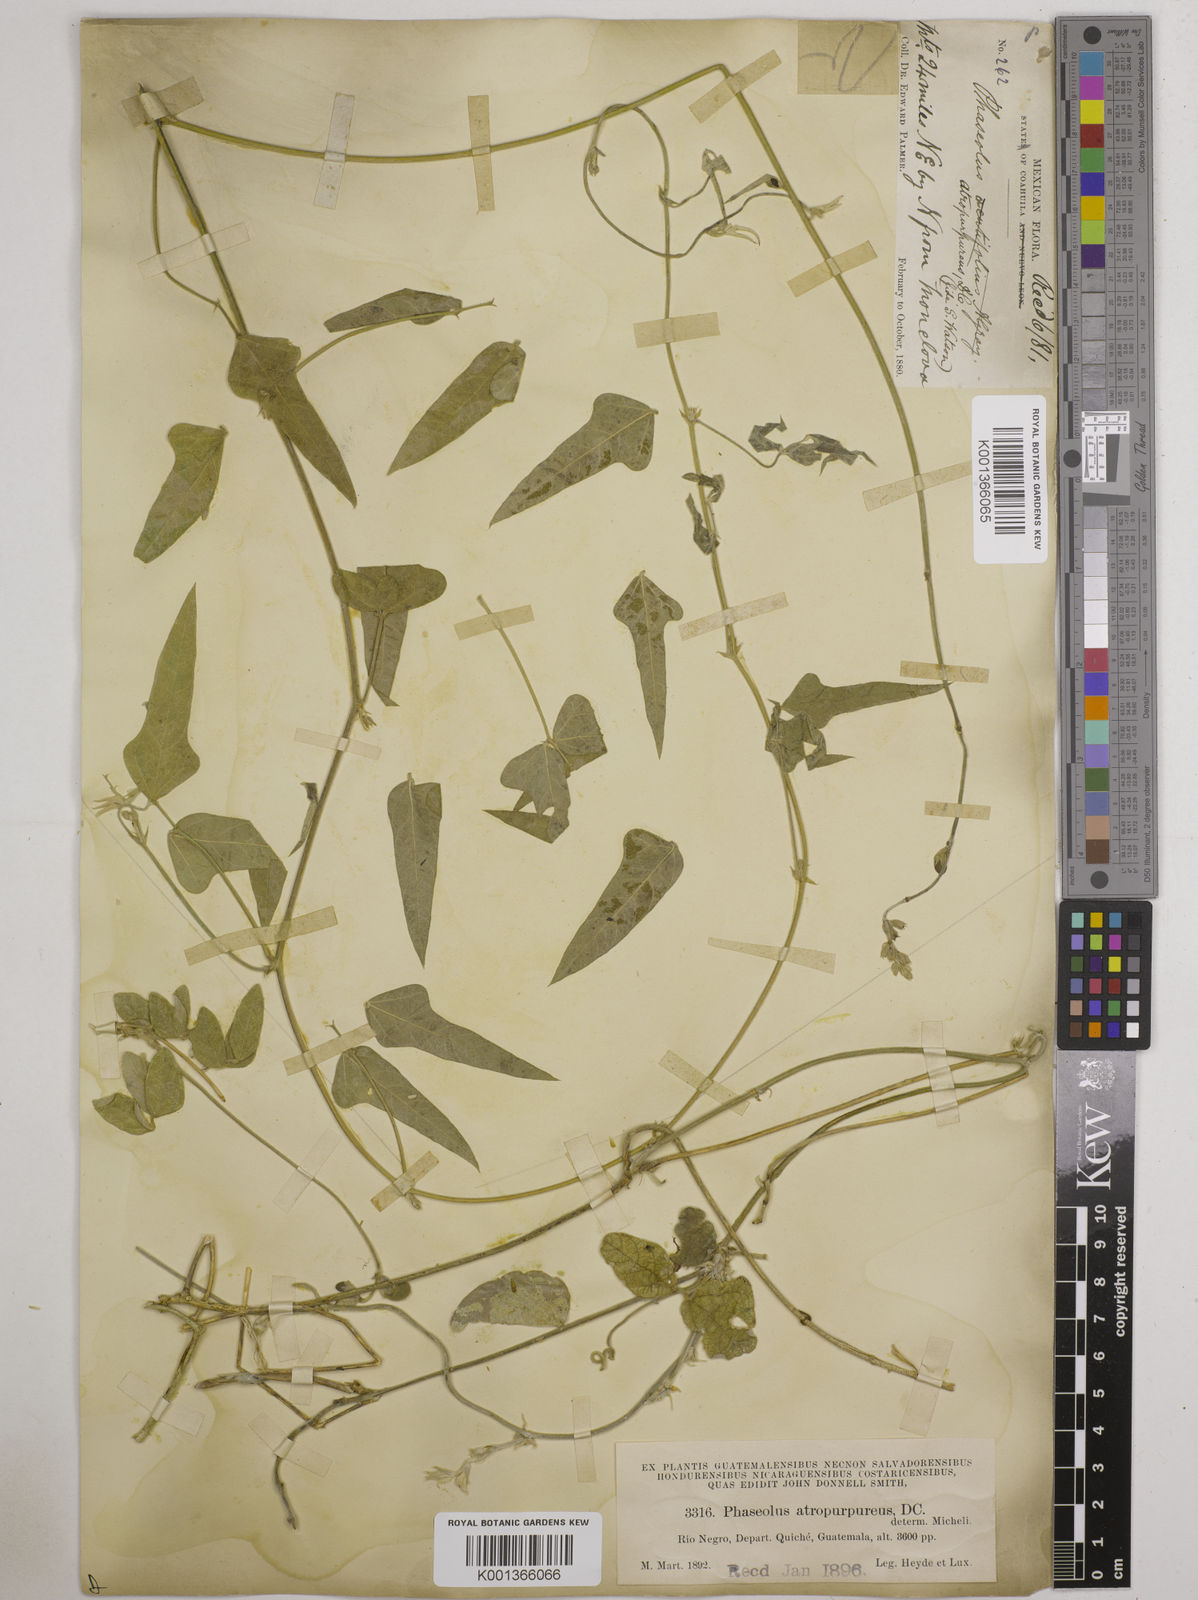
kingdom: Plantae
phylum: Tracheophyta
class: Magnoliopsida
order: Fabales
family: Fabaceae
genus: Macroptilium
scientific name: Macroptilium atropurpureum
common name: Purple bushbean
